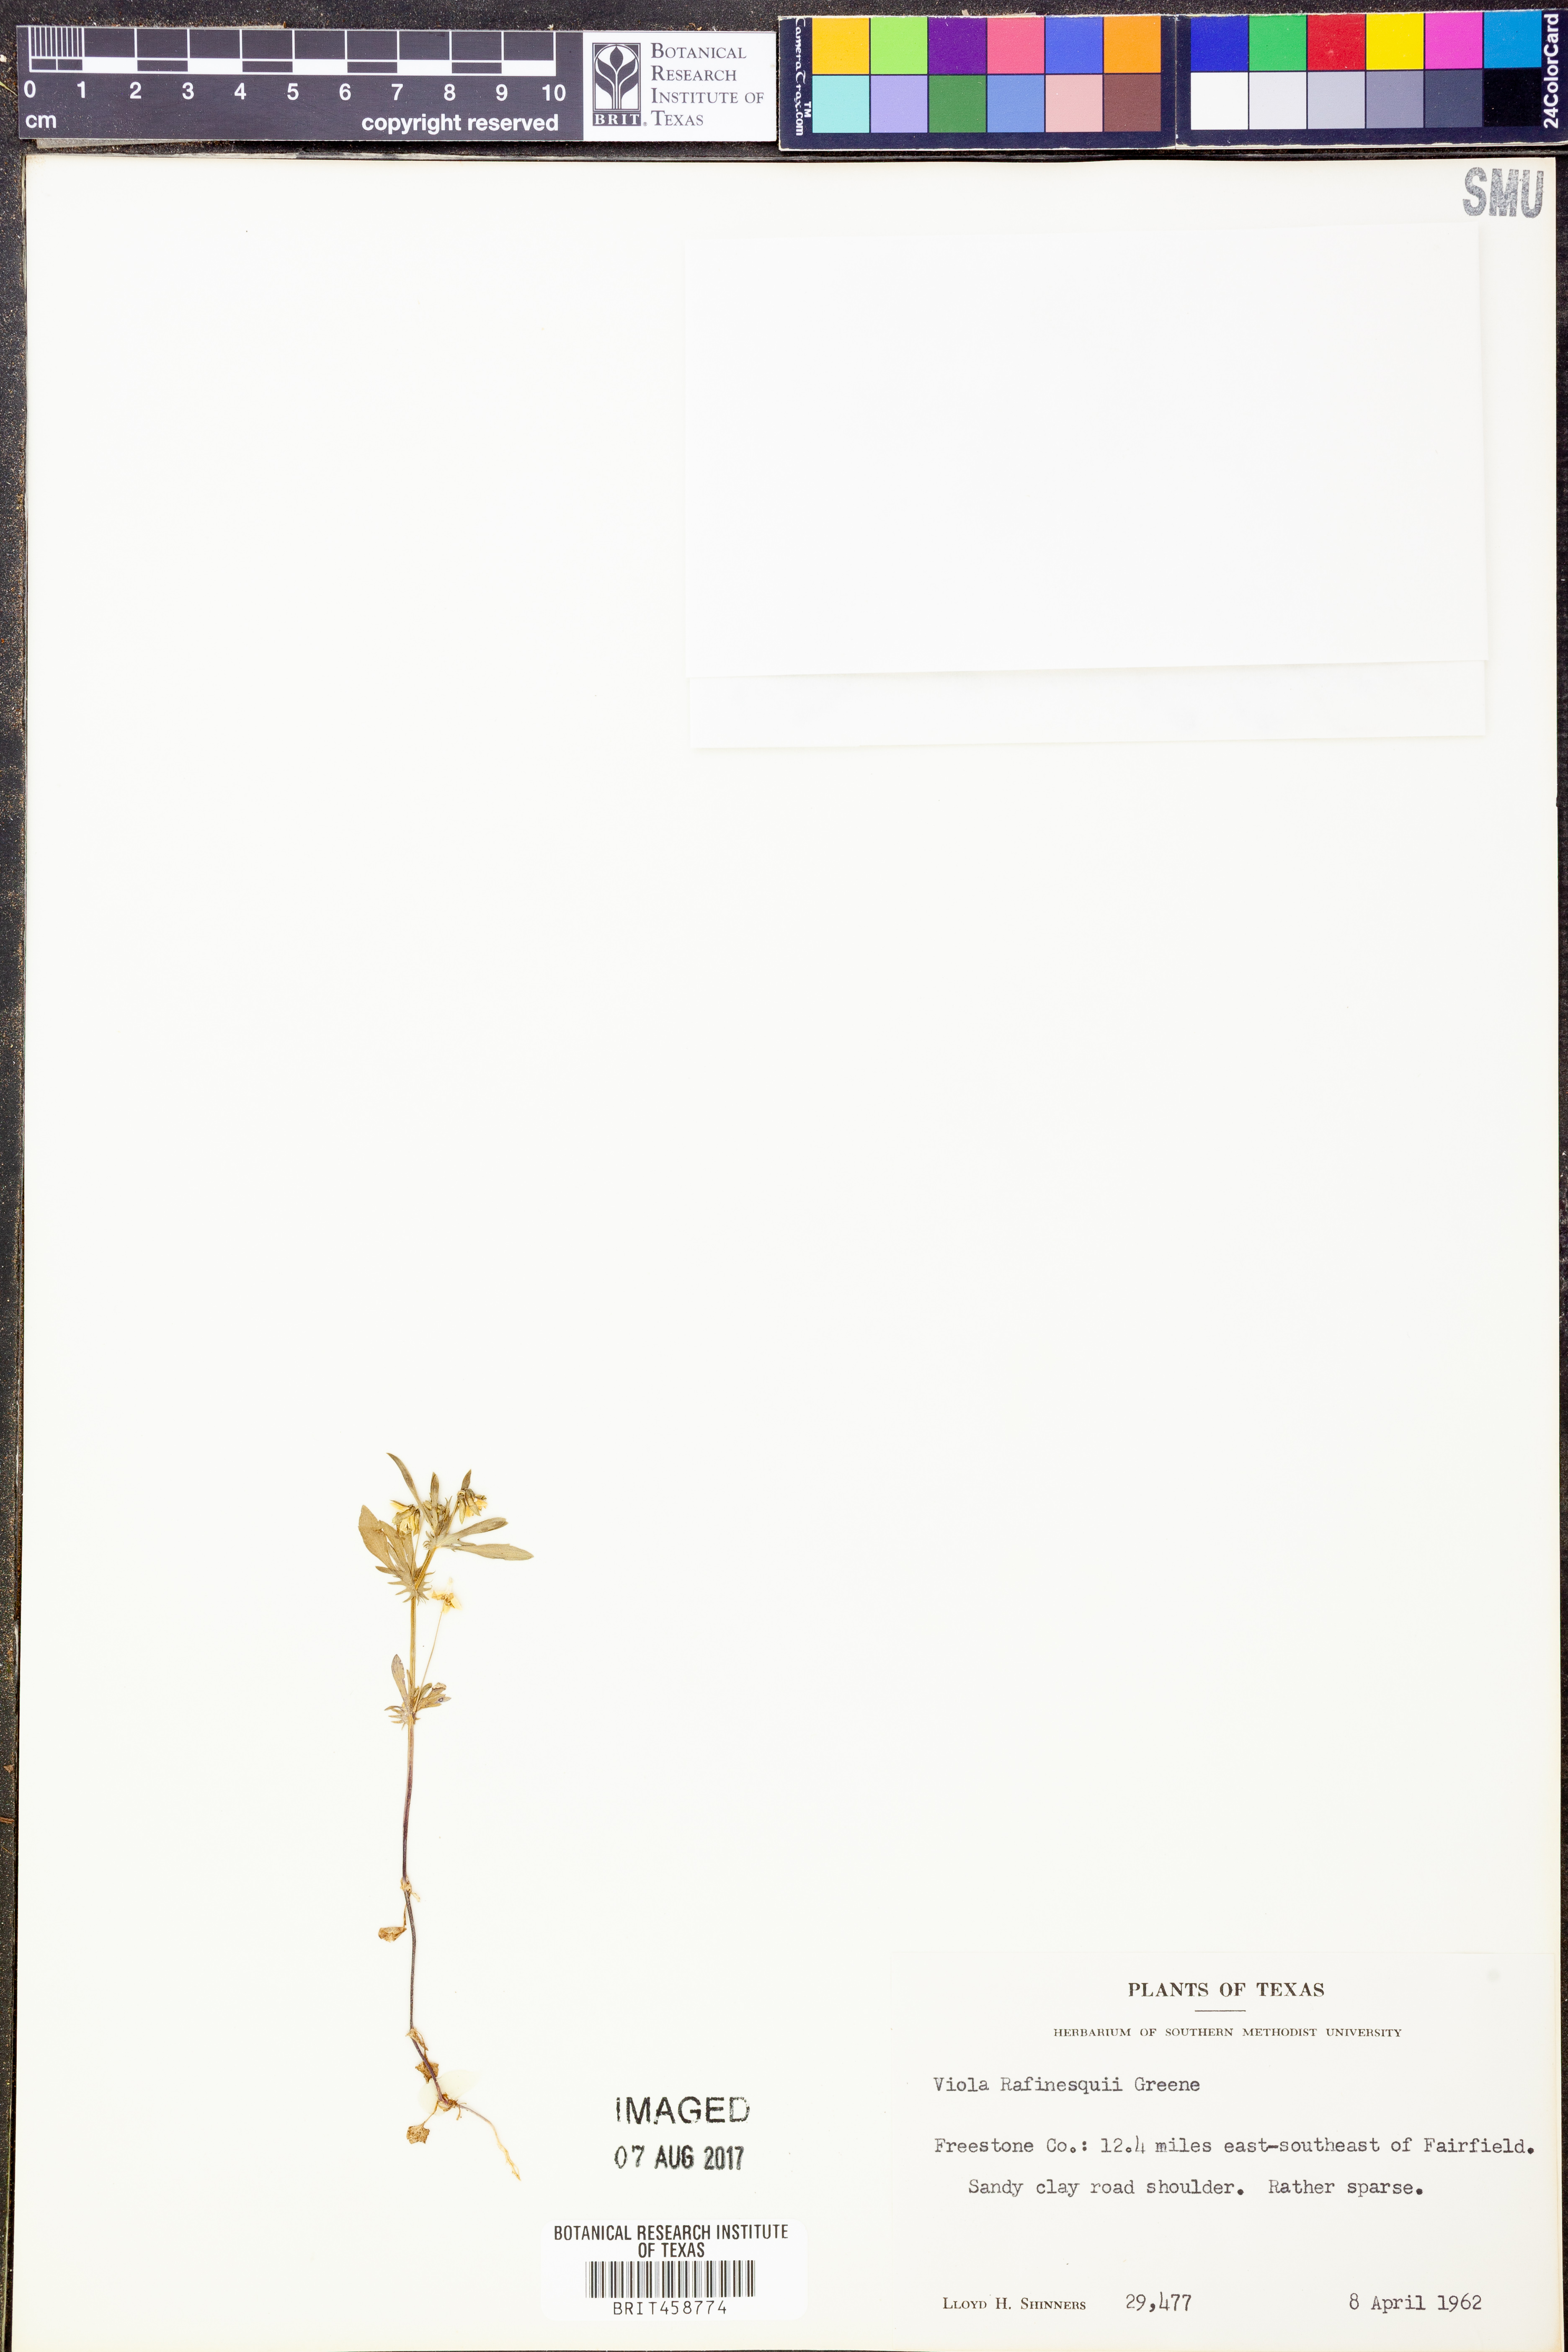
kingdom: Plantae
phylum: Tracheophyta
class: Magnoliopsida
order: Malpighiales
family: Violaceae
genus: Viola
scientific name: Viola rafinesquei
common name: American field pansy
